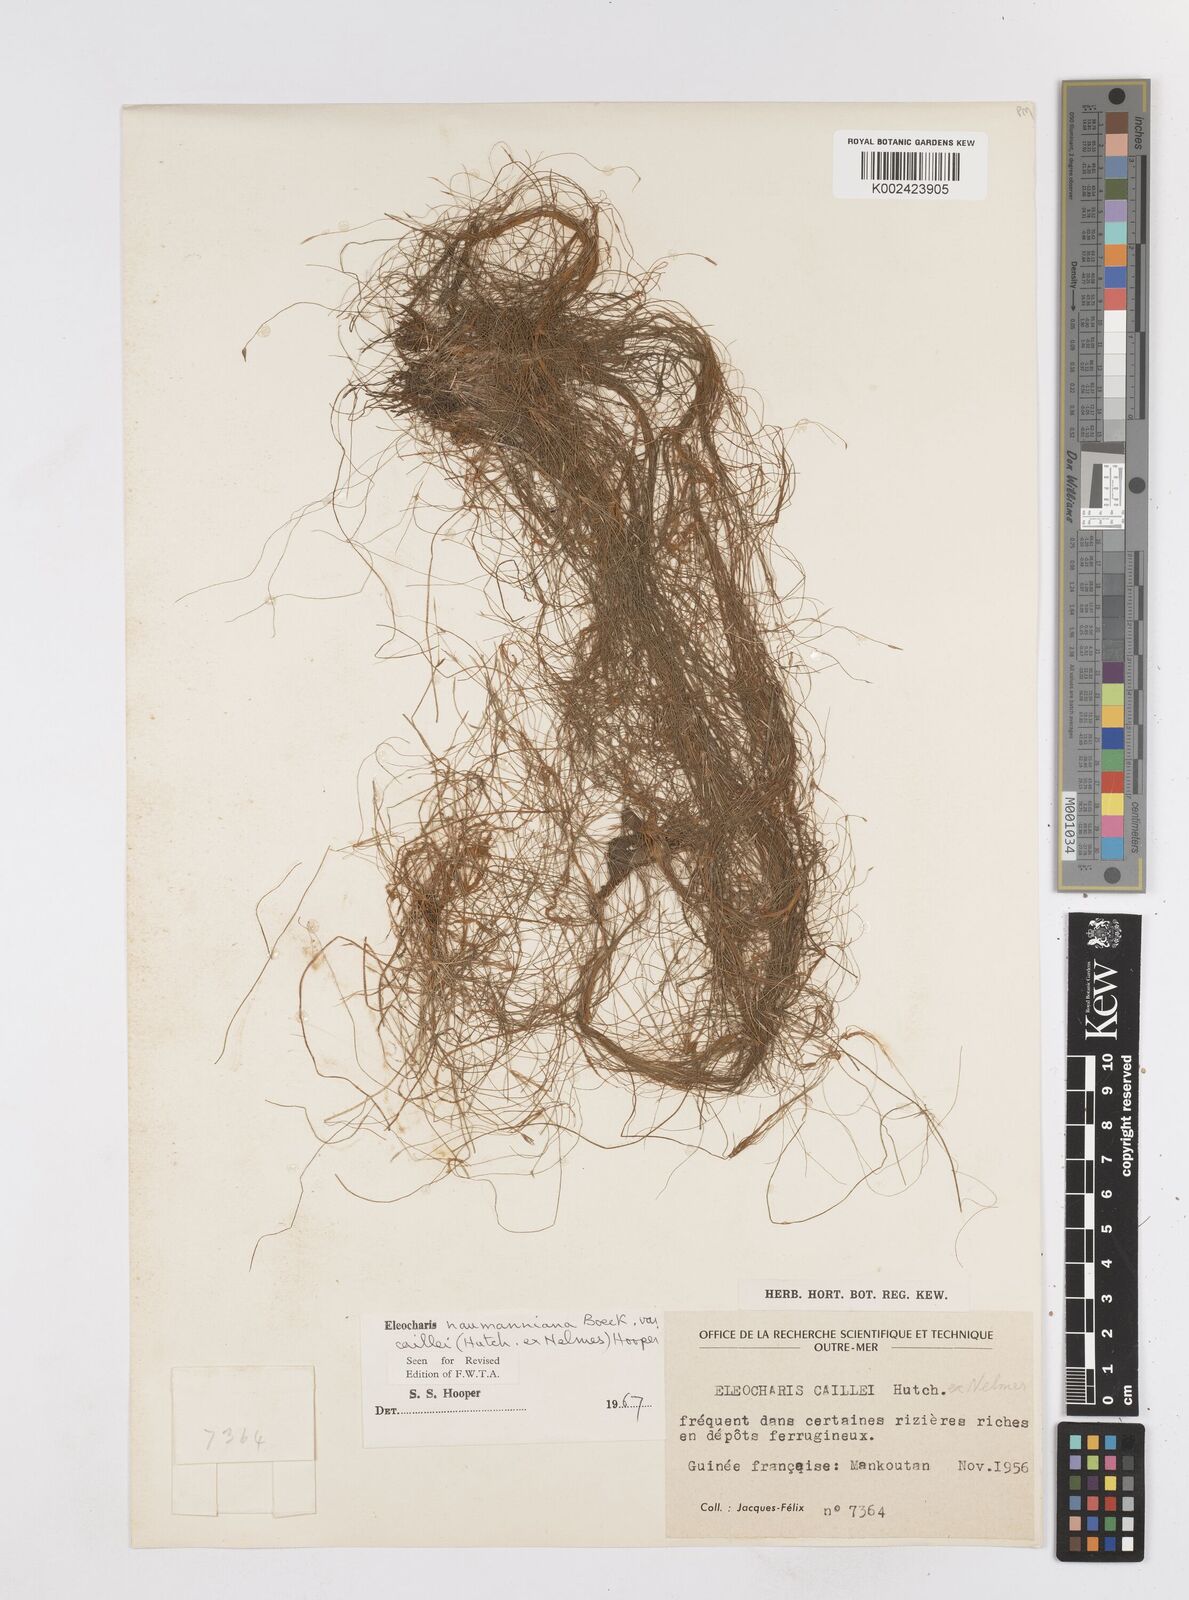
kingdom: Plantae
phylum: Tracheophyta
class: Liliopsida
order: Poales
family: Cyperaceae
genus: Eleocharis
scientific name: Eleocharis naumanniana
